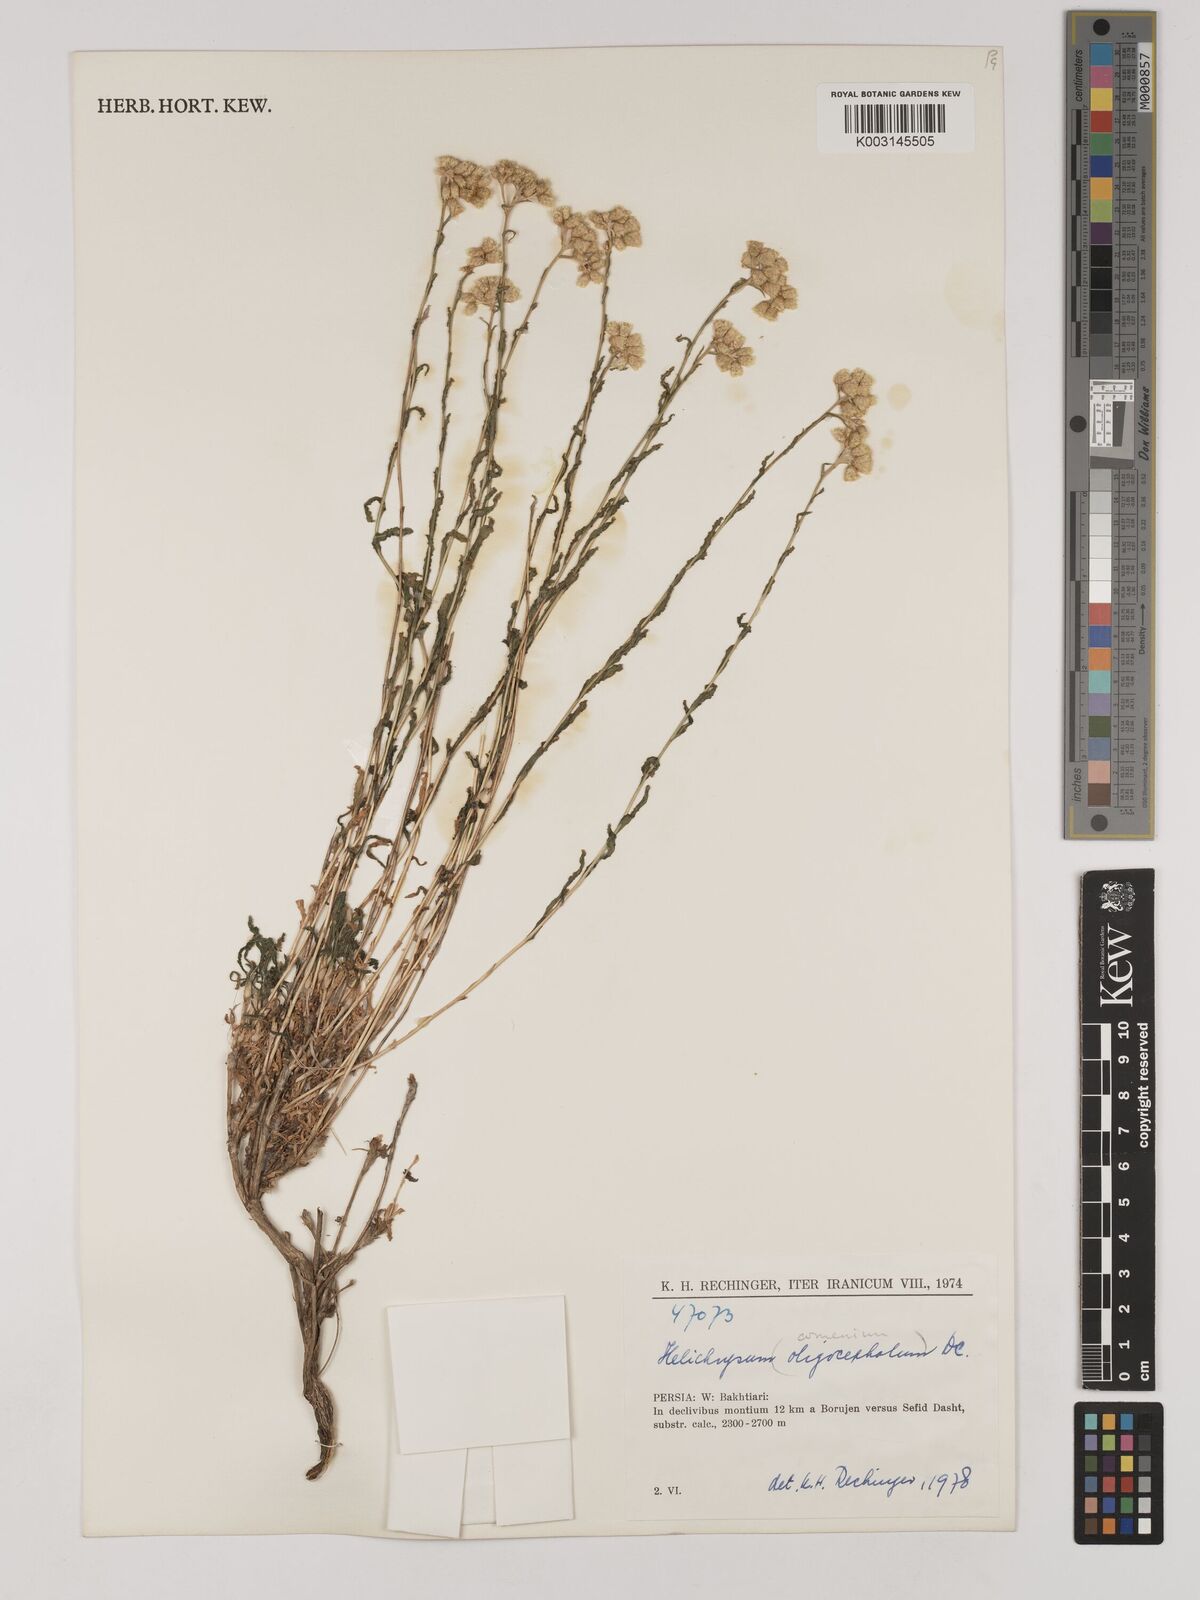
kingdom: Plantae
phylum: Tracheophyta
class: Magnoliopsida
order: Asterales
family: Asteraceae
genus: Helichrysum
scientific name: Helichrysum armenium
